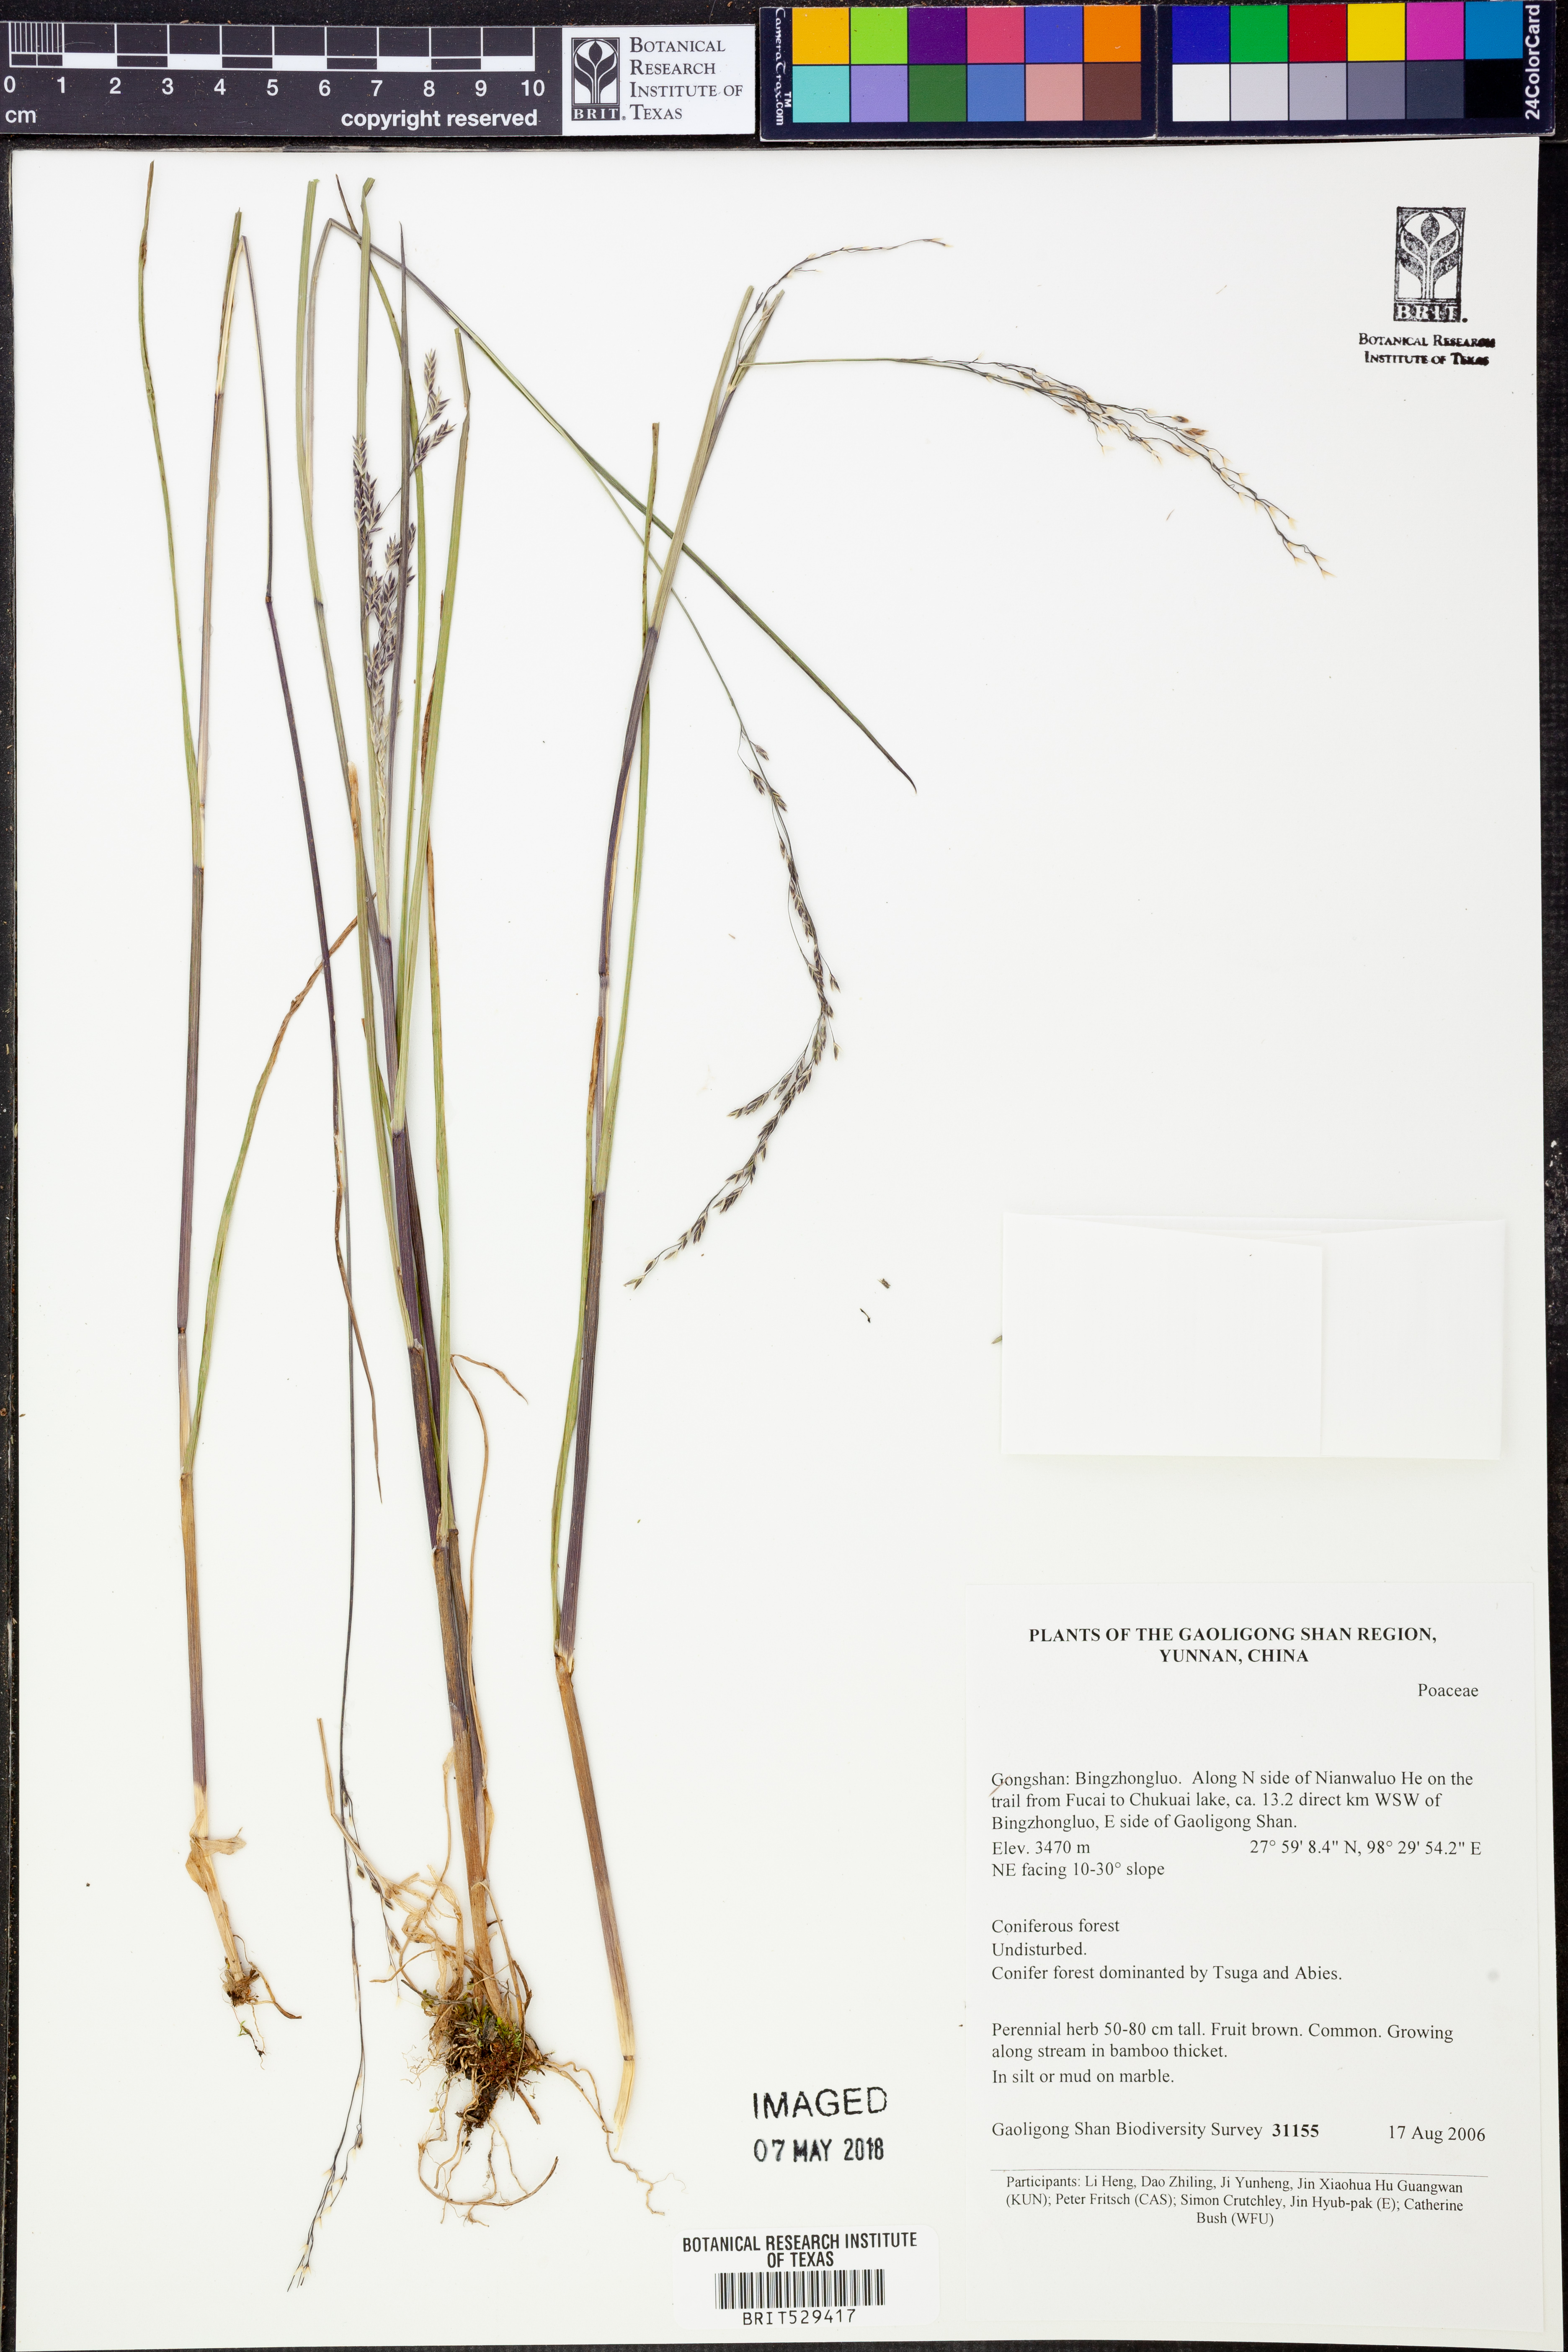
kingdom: Plantae
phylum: Tracheophyta
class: Liliopsida
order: Poales
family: Poaceae
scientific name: Poaceae
